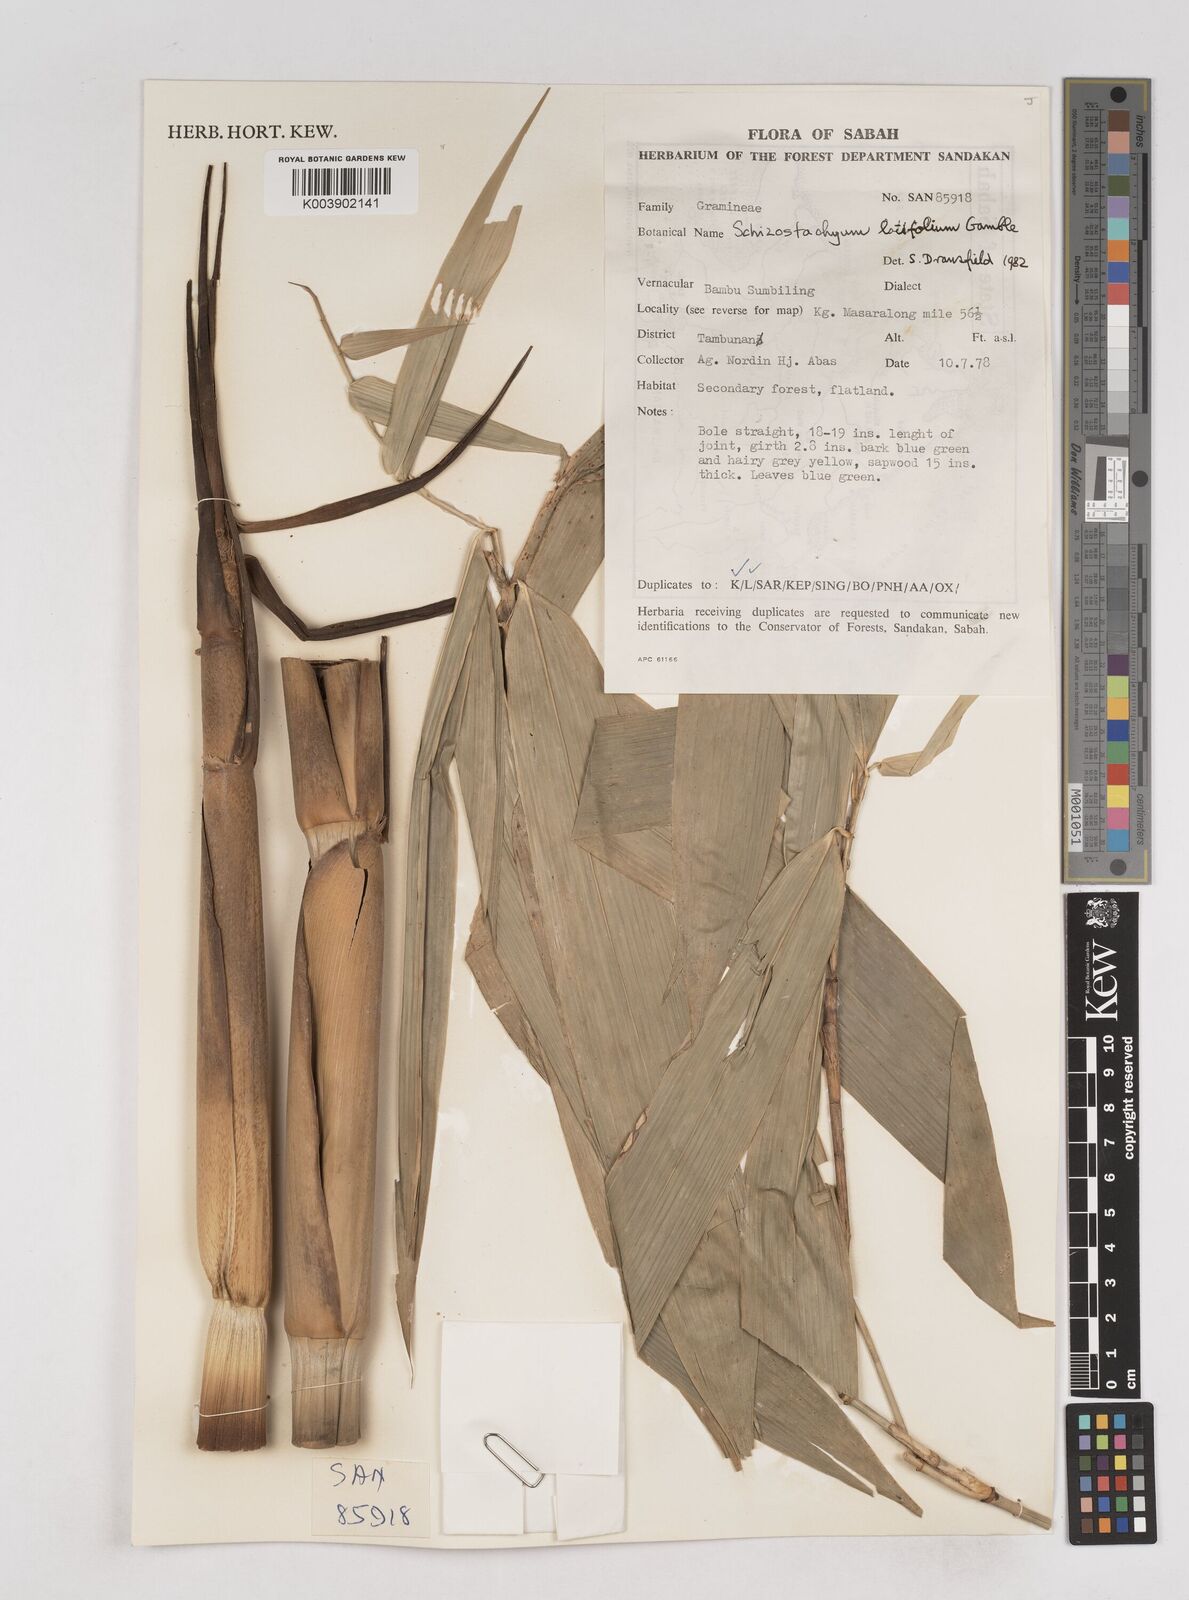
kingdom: Plantae
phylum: Tracheophyta
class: Liliopsida
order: Poales
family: Poaceae
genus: Schizostachyum
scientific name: Schizostachyum
